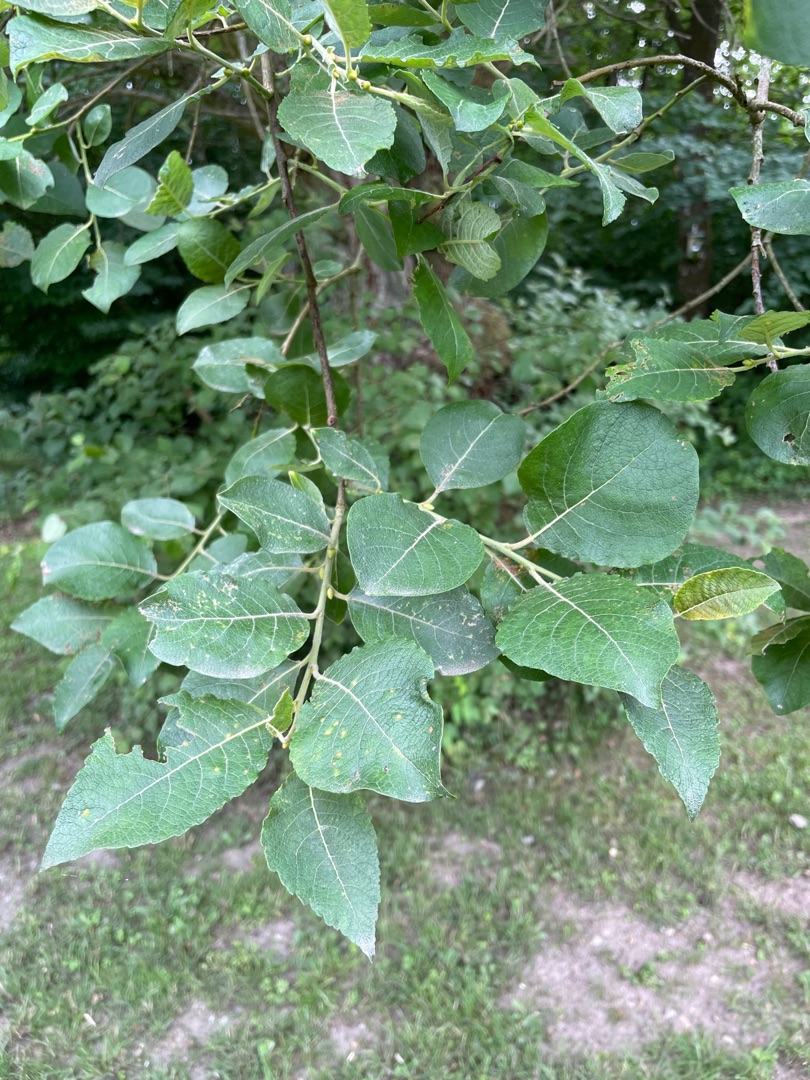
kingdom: Plantae
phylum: Tracheophyta
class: Magnoliopsida
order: Malpighiales
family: Salicaceae
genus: Salix
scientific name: Salix caprea
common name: Selje-pil
